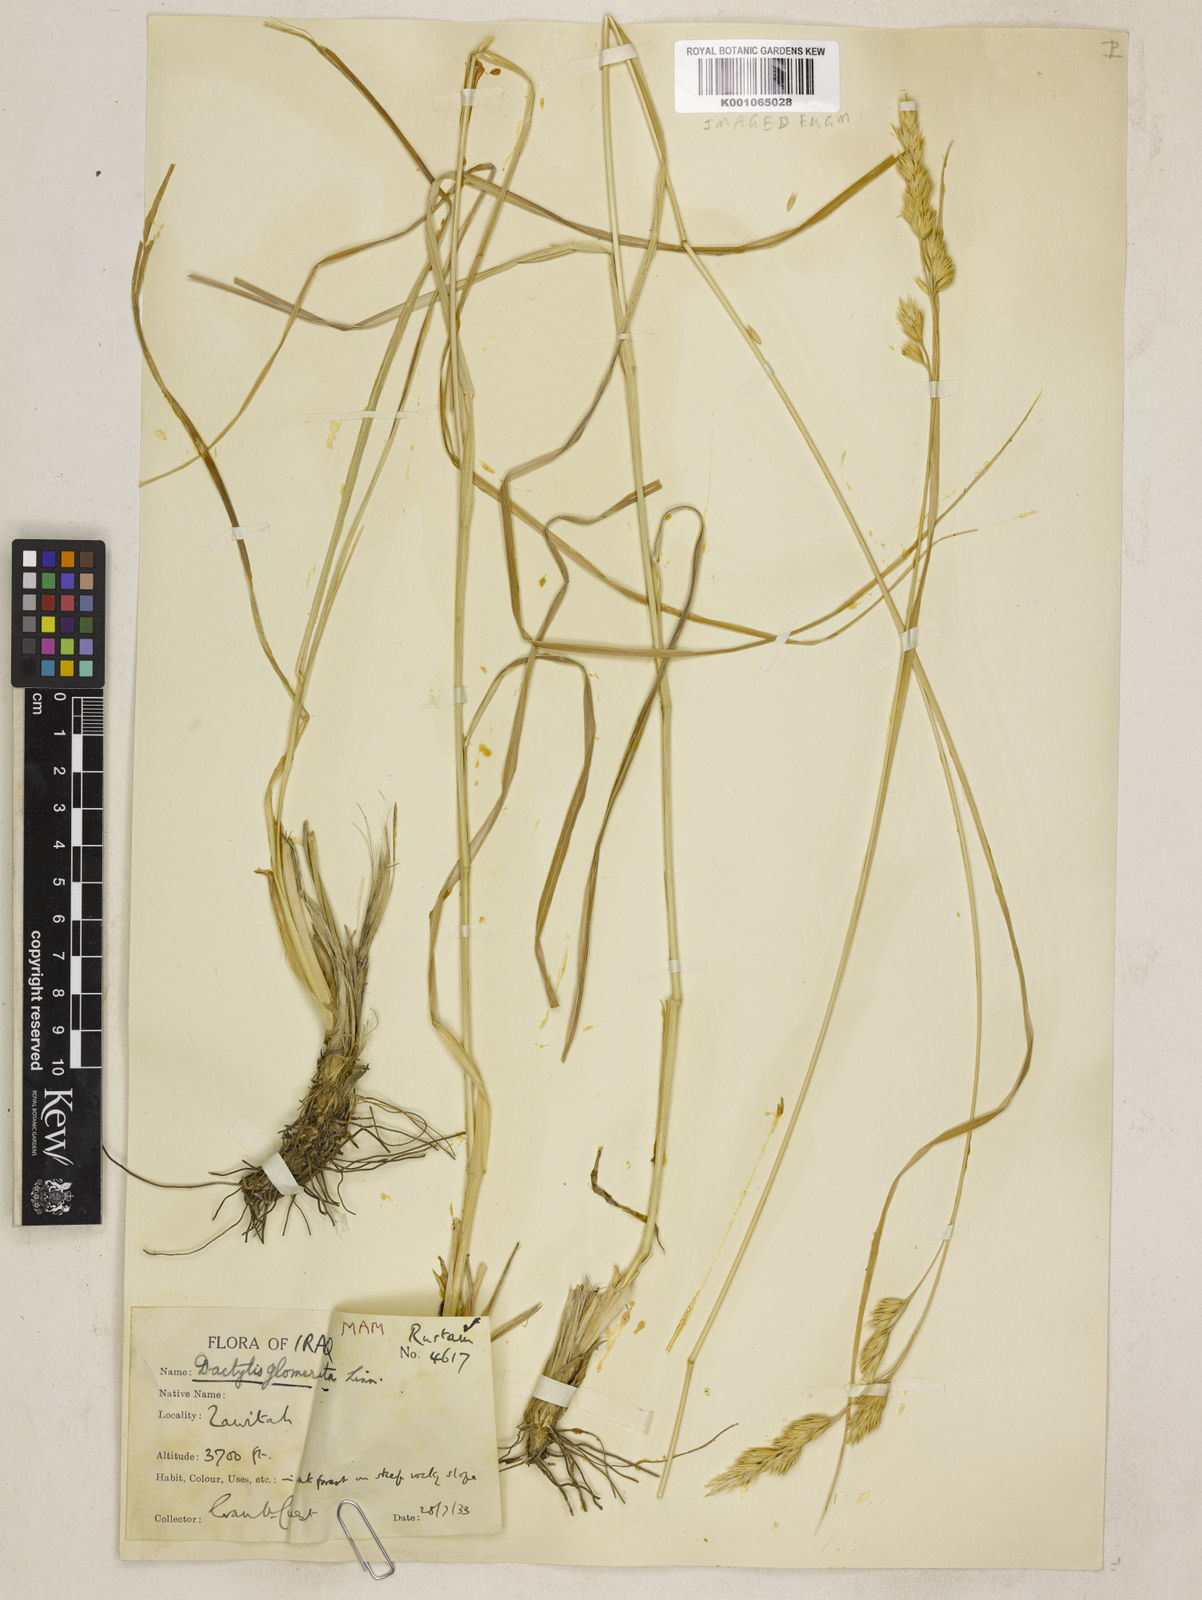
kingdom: Plantae
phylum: Tracheophyta
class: Liliopsida
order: Poales
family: Poaceae
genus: Dactylis
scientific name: Dactylis glomerata
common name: Orchardgrass
